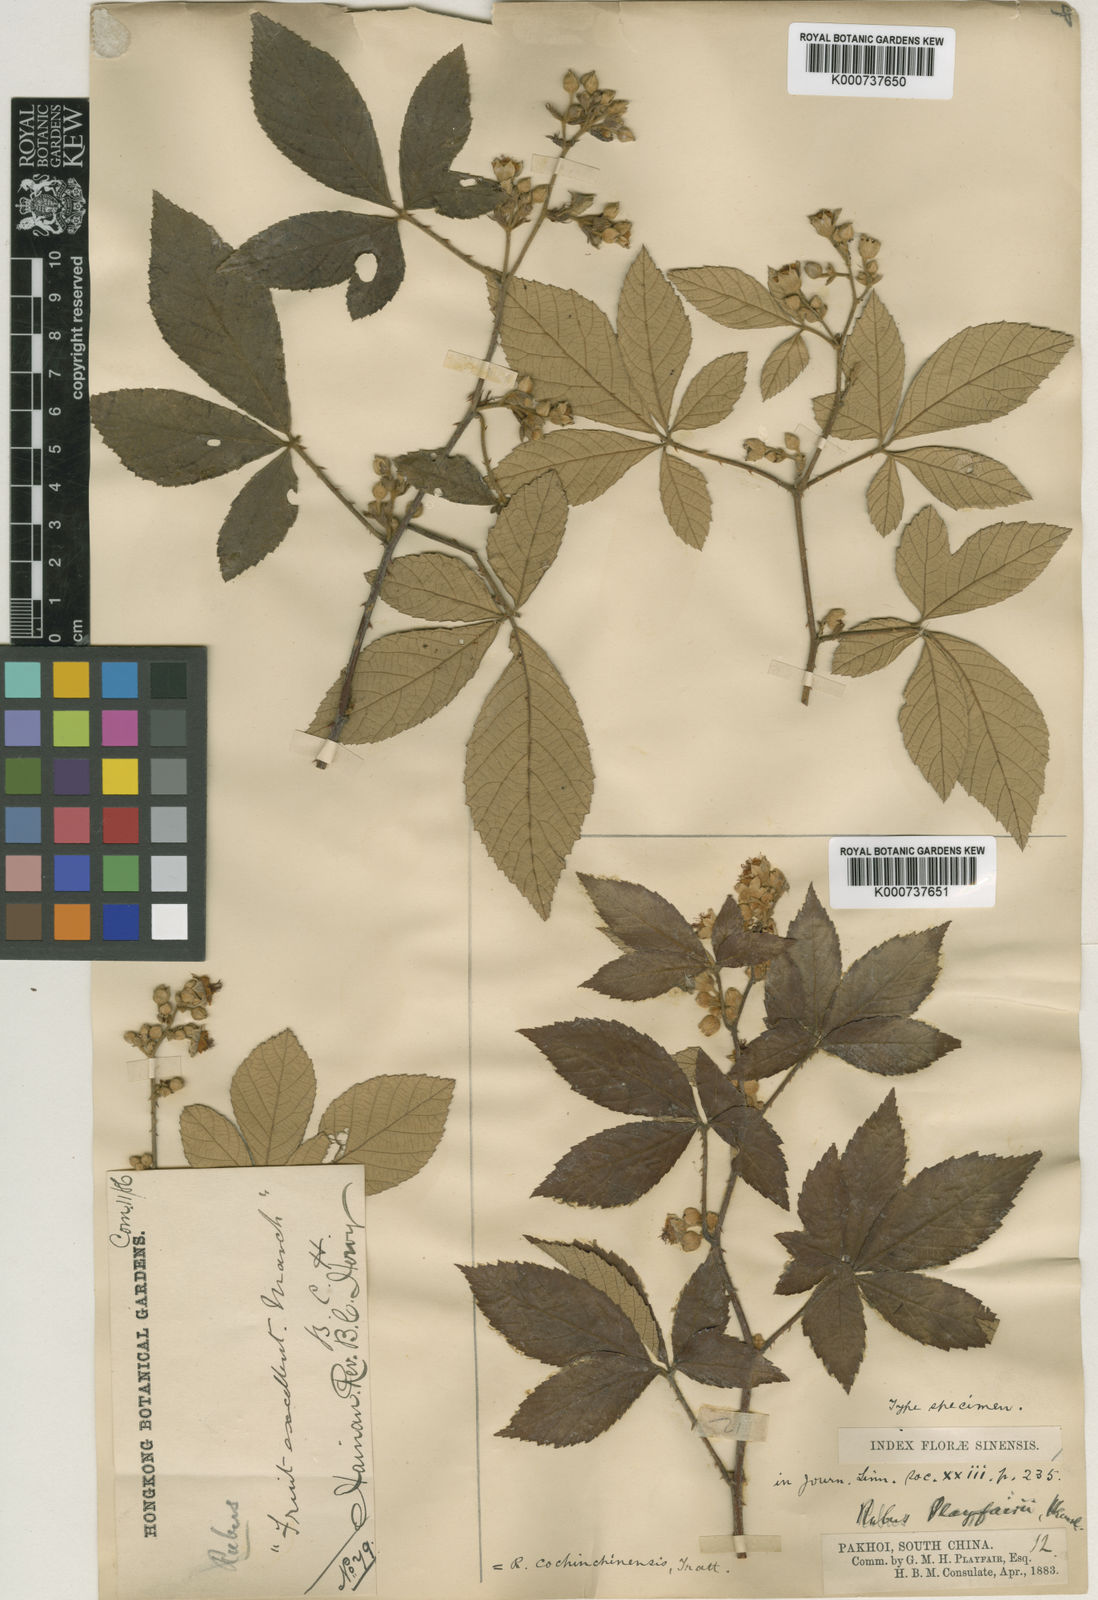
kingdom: Plantae
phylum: Tracheophyta
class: Magnoliopsida
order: Rosales
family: Rosaceae
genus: Rubus
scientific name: Rubus cochinchinensis
